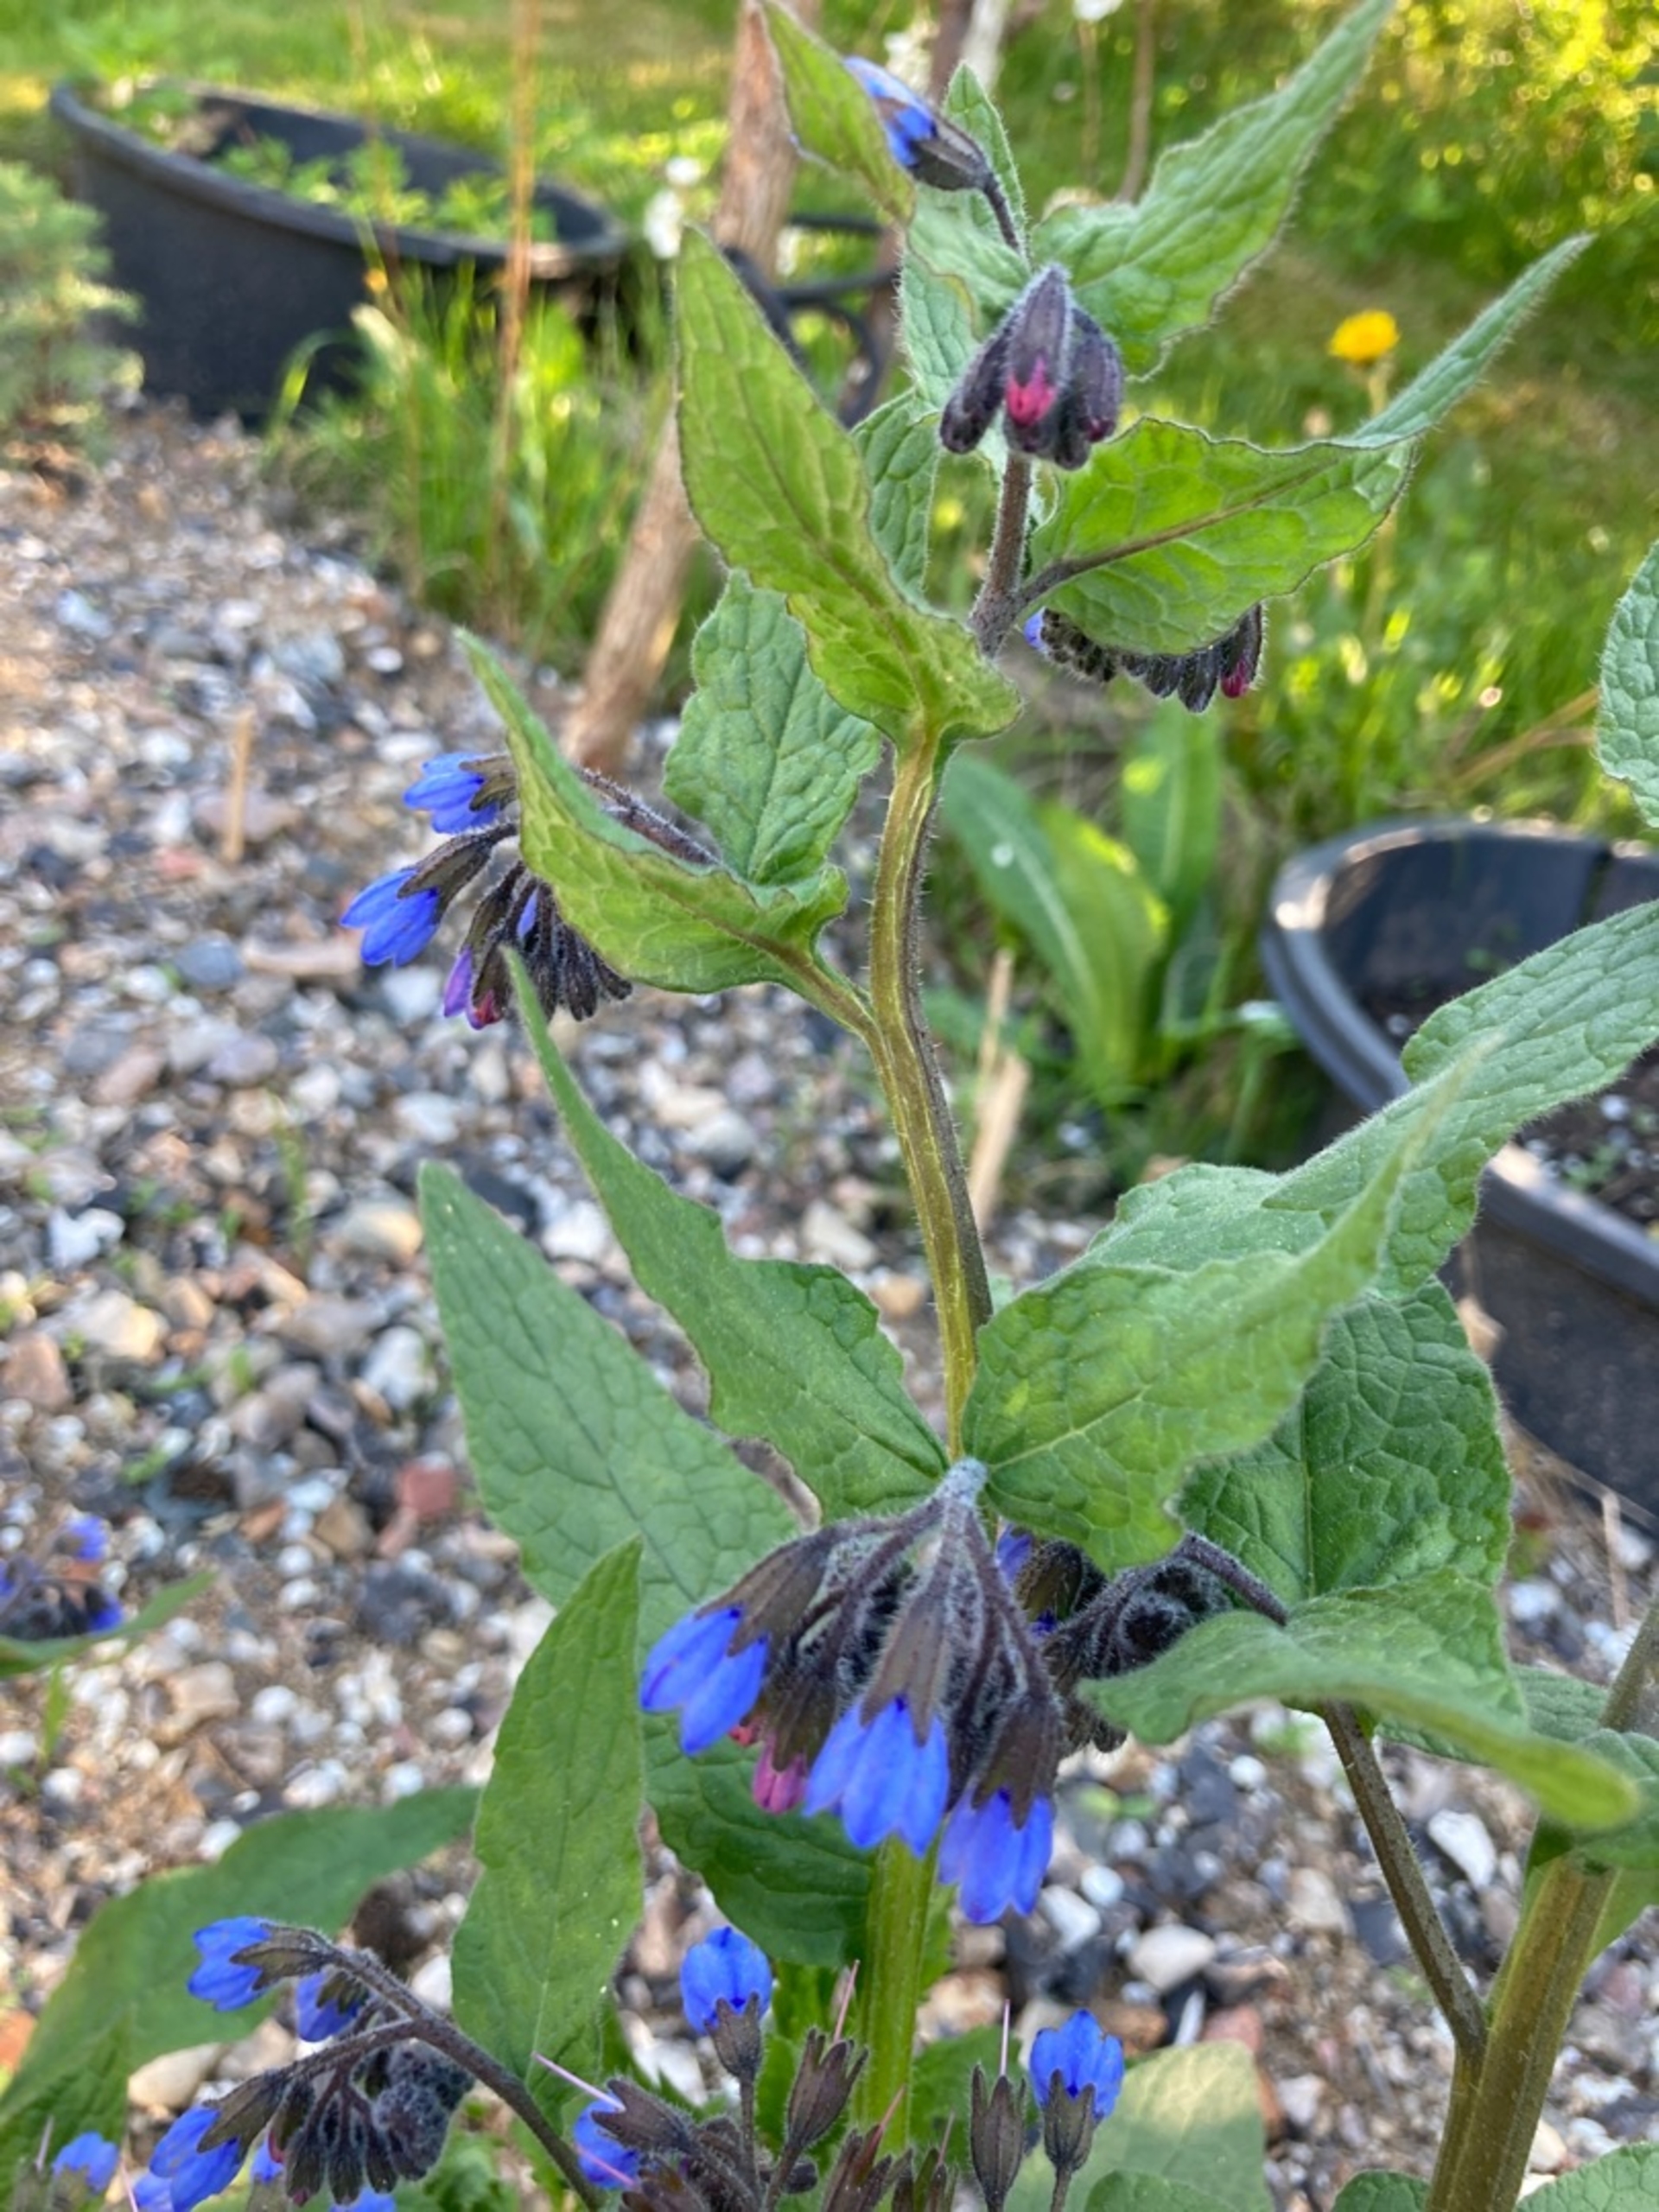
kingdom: Plantae
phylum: Tracheophyta
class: Magnoliopsida
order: Boraginales
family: Boraginaceae
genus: Symphytum
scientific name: Symphytum caucasicum
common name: Kaukasisk kulsukker
